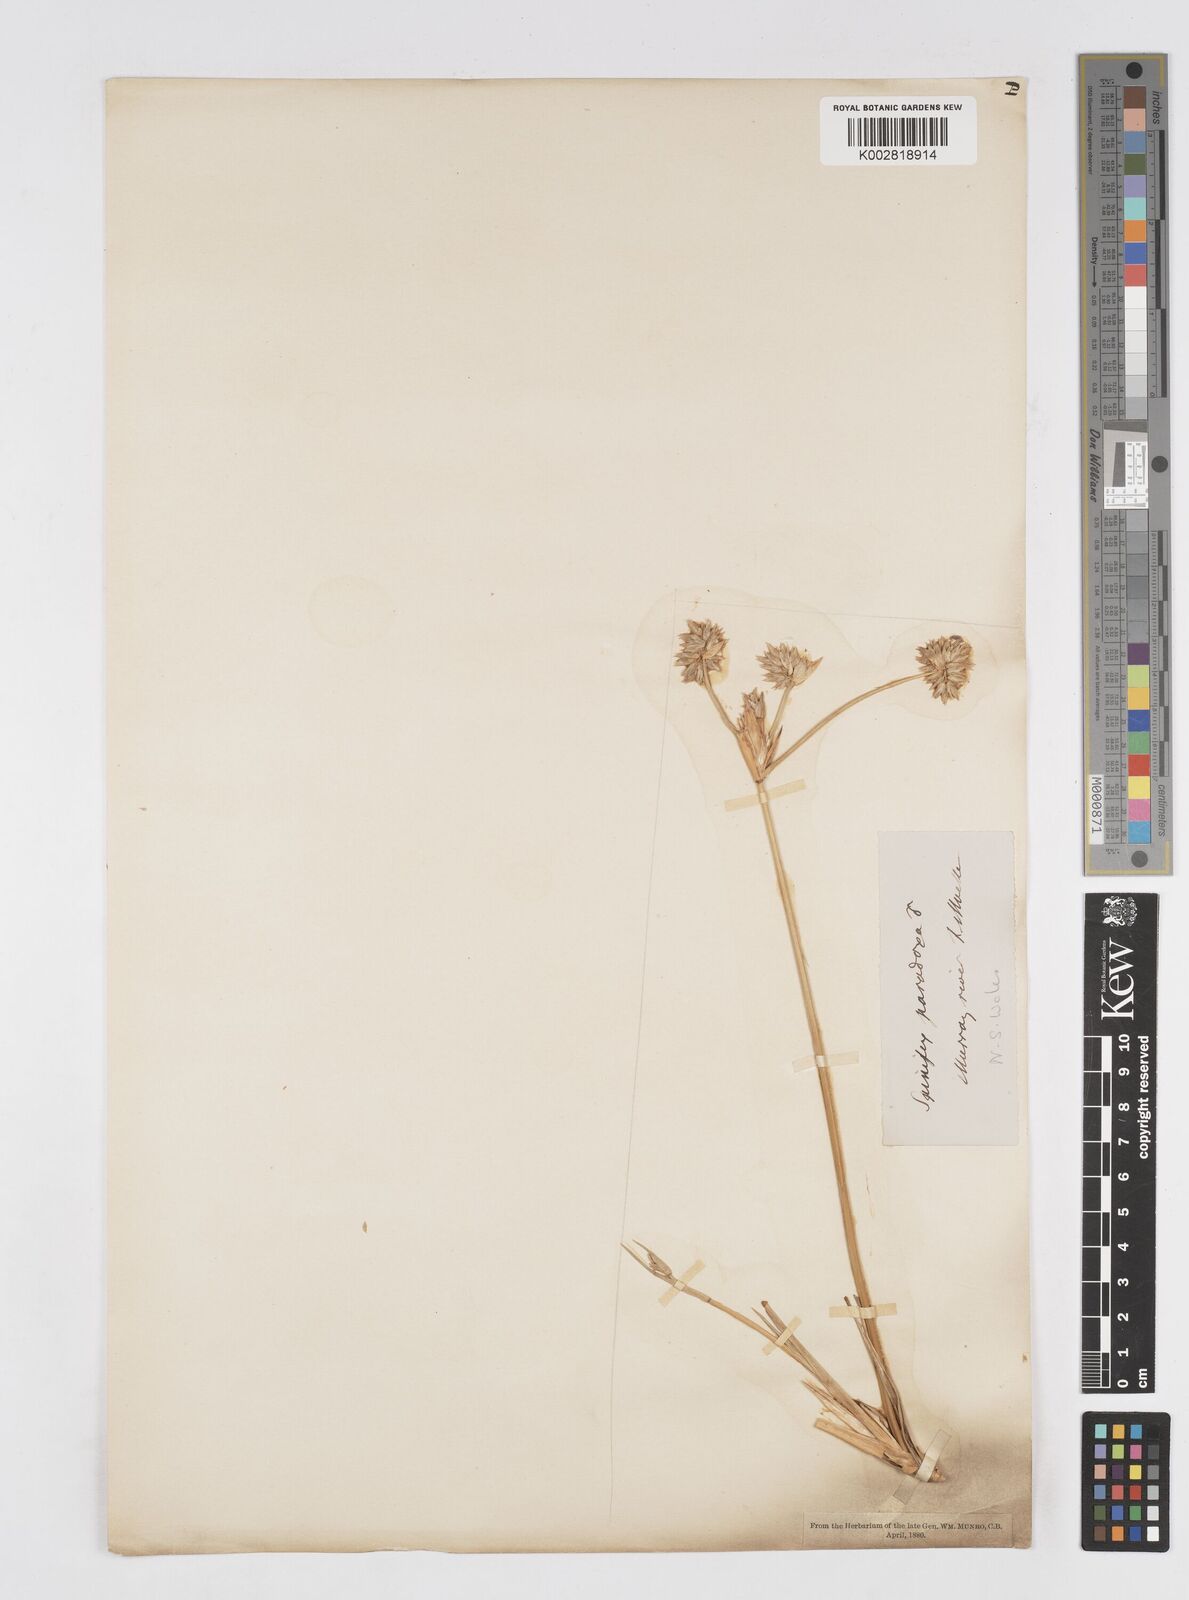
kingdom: Plantae
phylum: Tracheophyta
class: Liliopsida
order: Poales
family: Poaceae
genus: Zygochloa
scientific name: Zygochloa paradoxa
